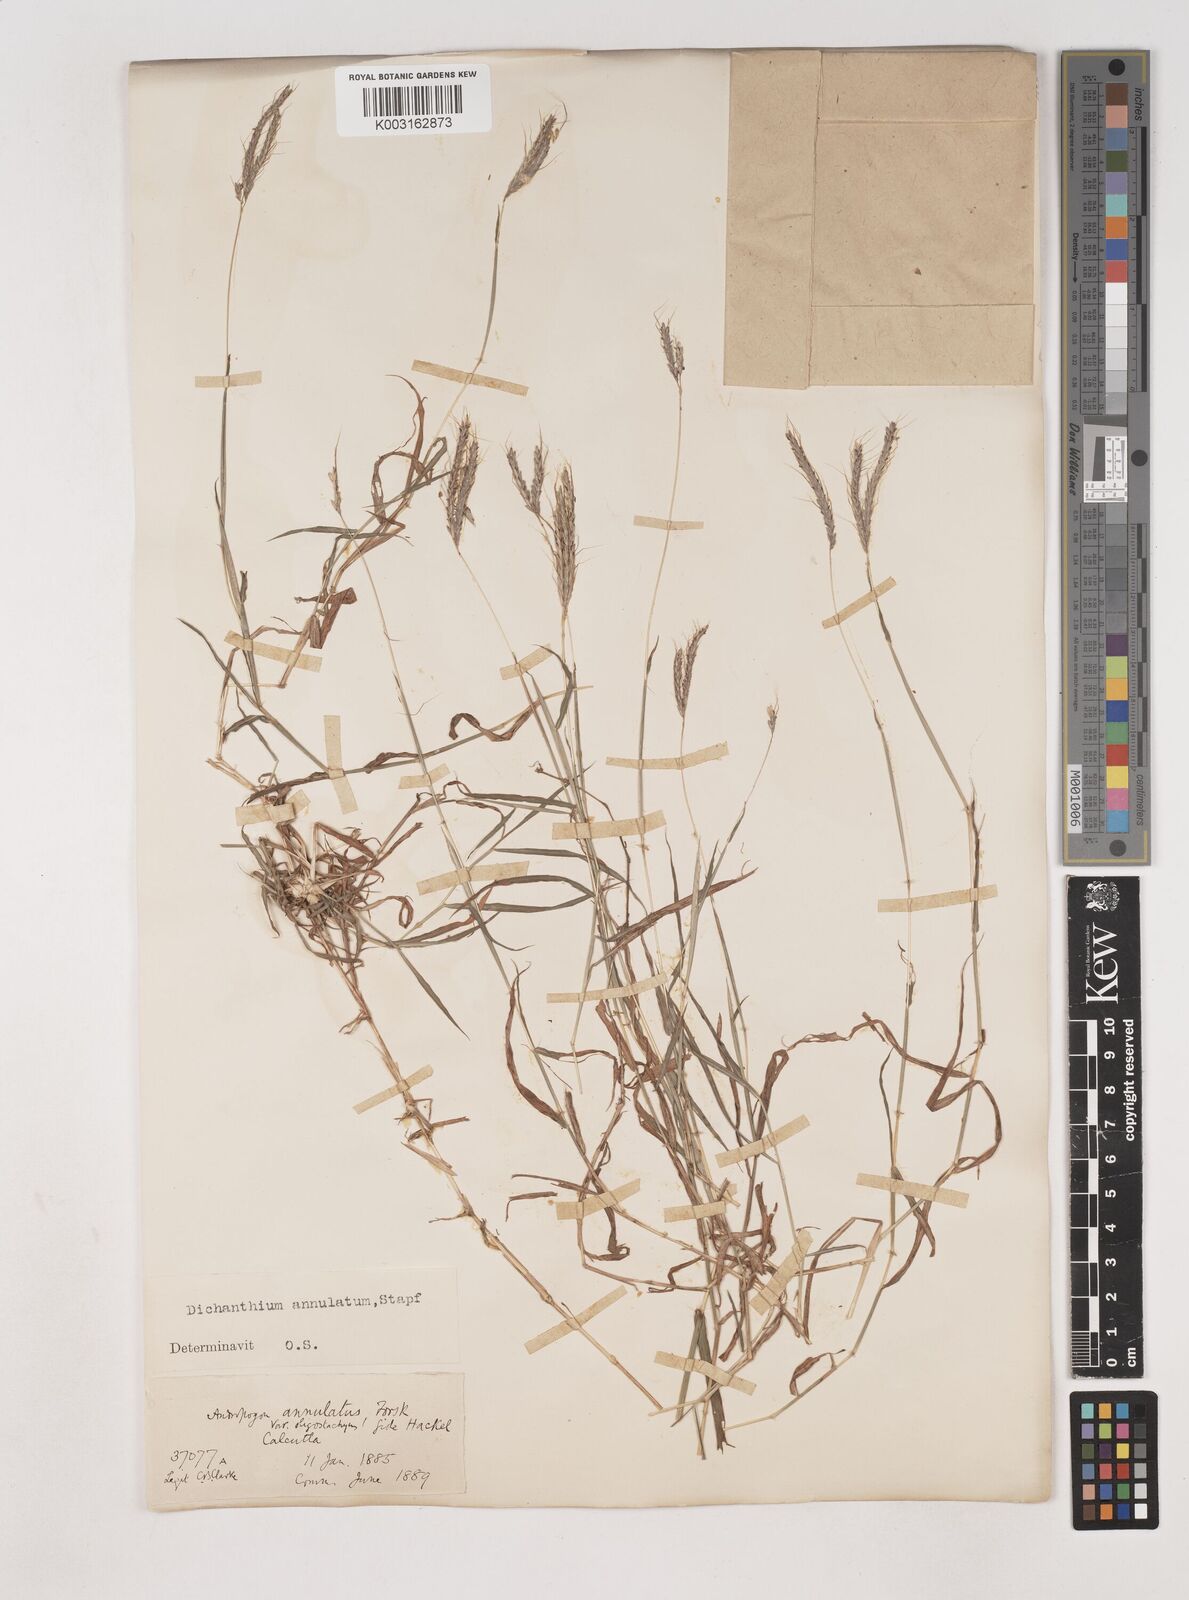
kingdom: Plantae
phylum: Tracheophyta
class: Liliopsida
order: Poales
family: Poaceae
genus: Dichanthium
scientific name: Dichanthium annulatum
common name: Kleberg's bluestem
